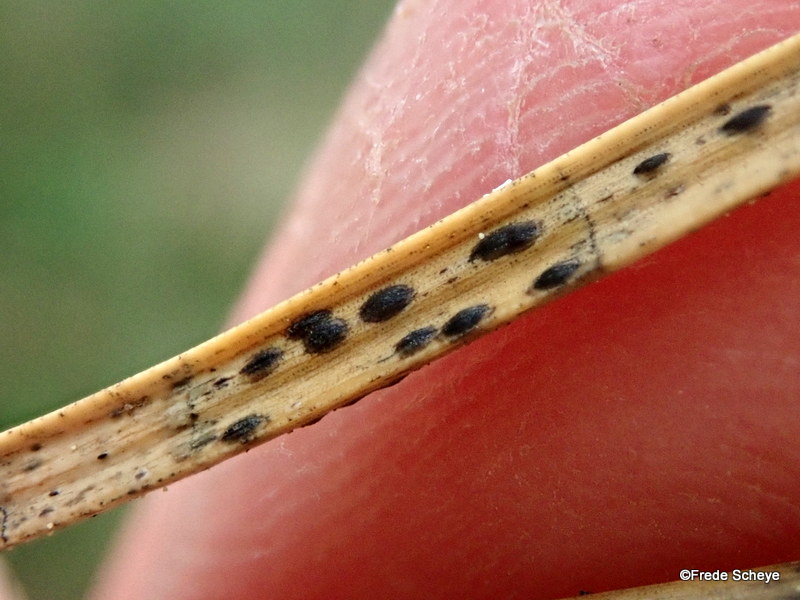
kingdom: Fungi
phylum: Ascomycota
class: Leotiomycetes
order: Rhytismatales
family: Rhytismataceae
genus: Lophodermium
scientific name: Lophodermium pinastri
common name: fyrre-fureplet
